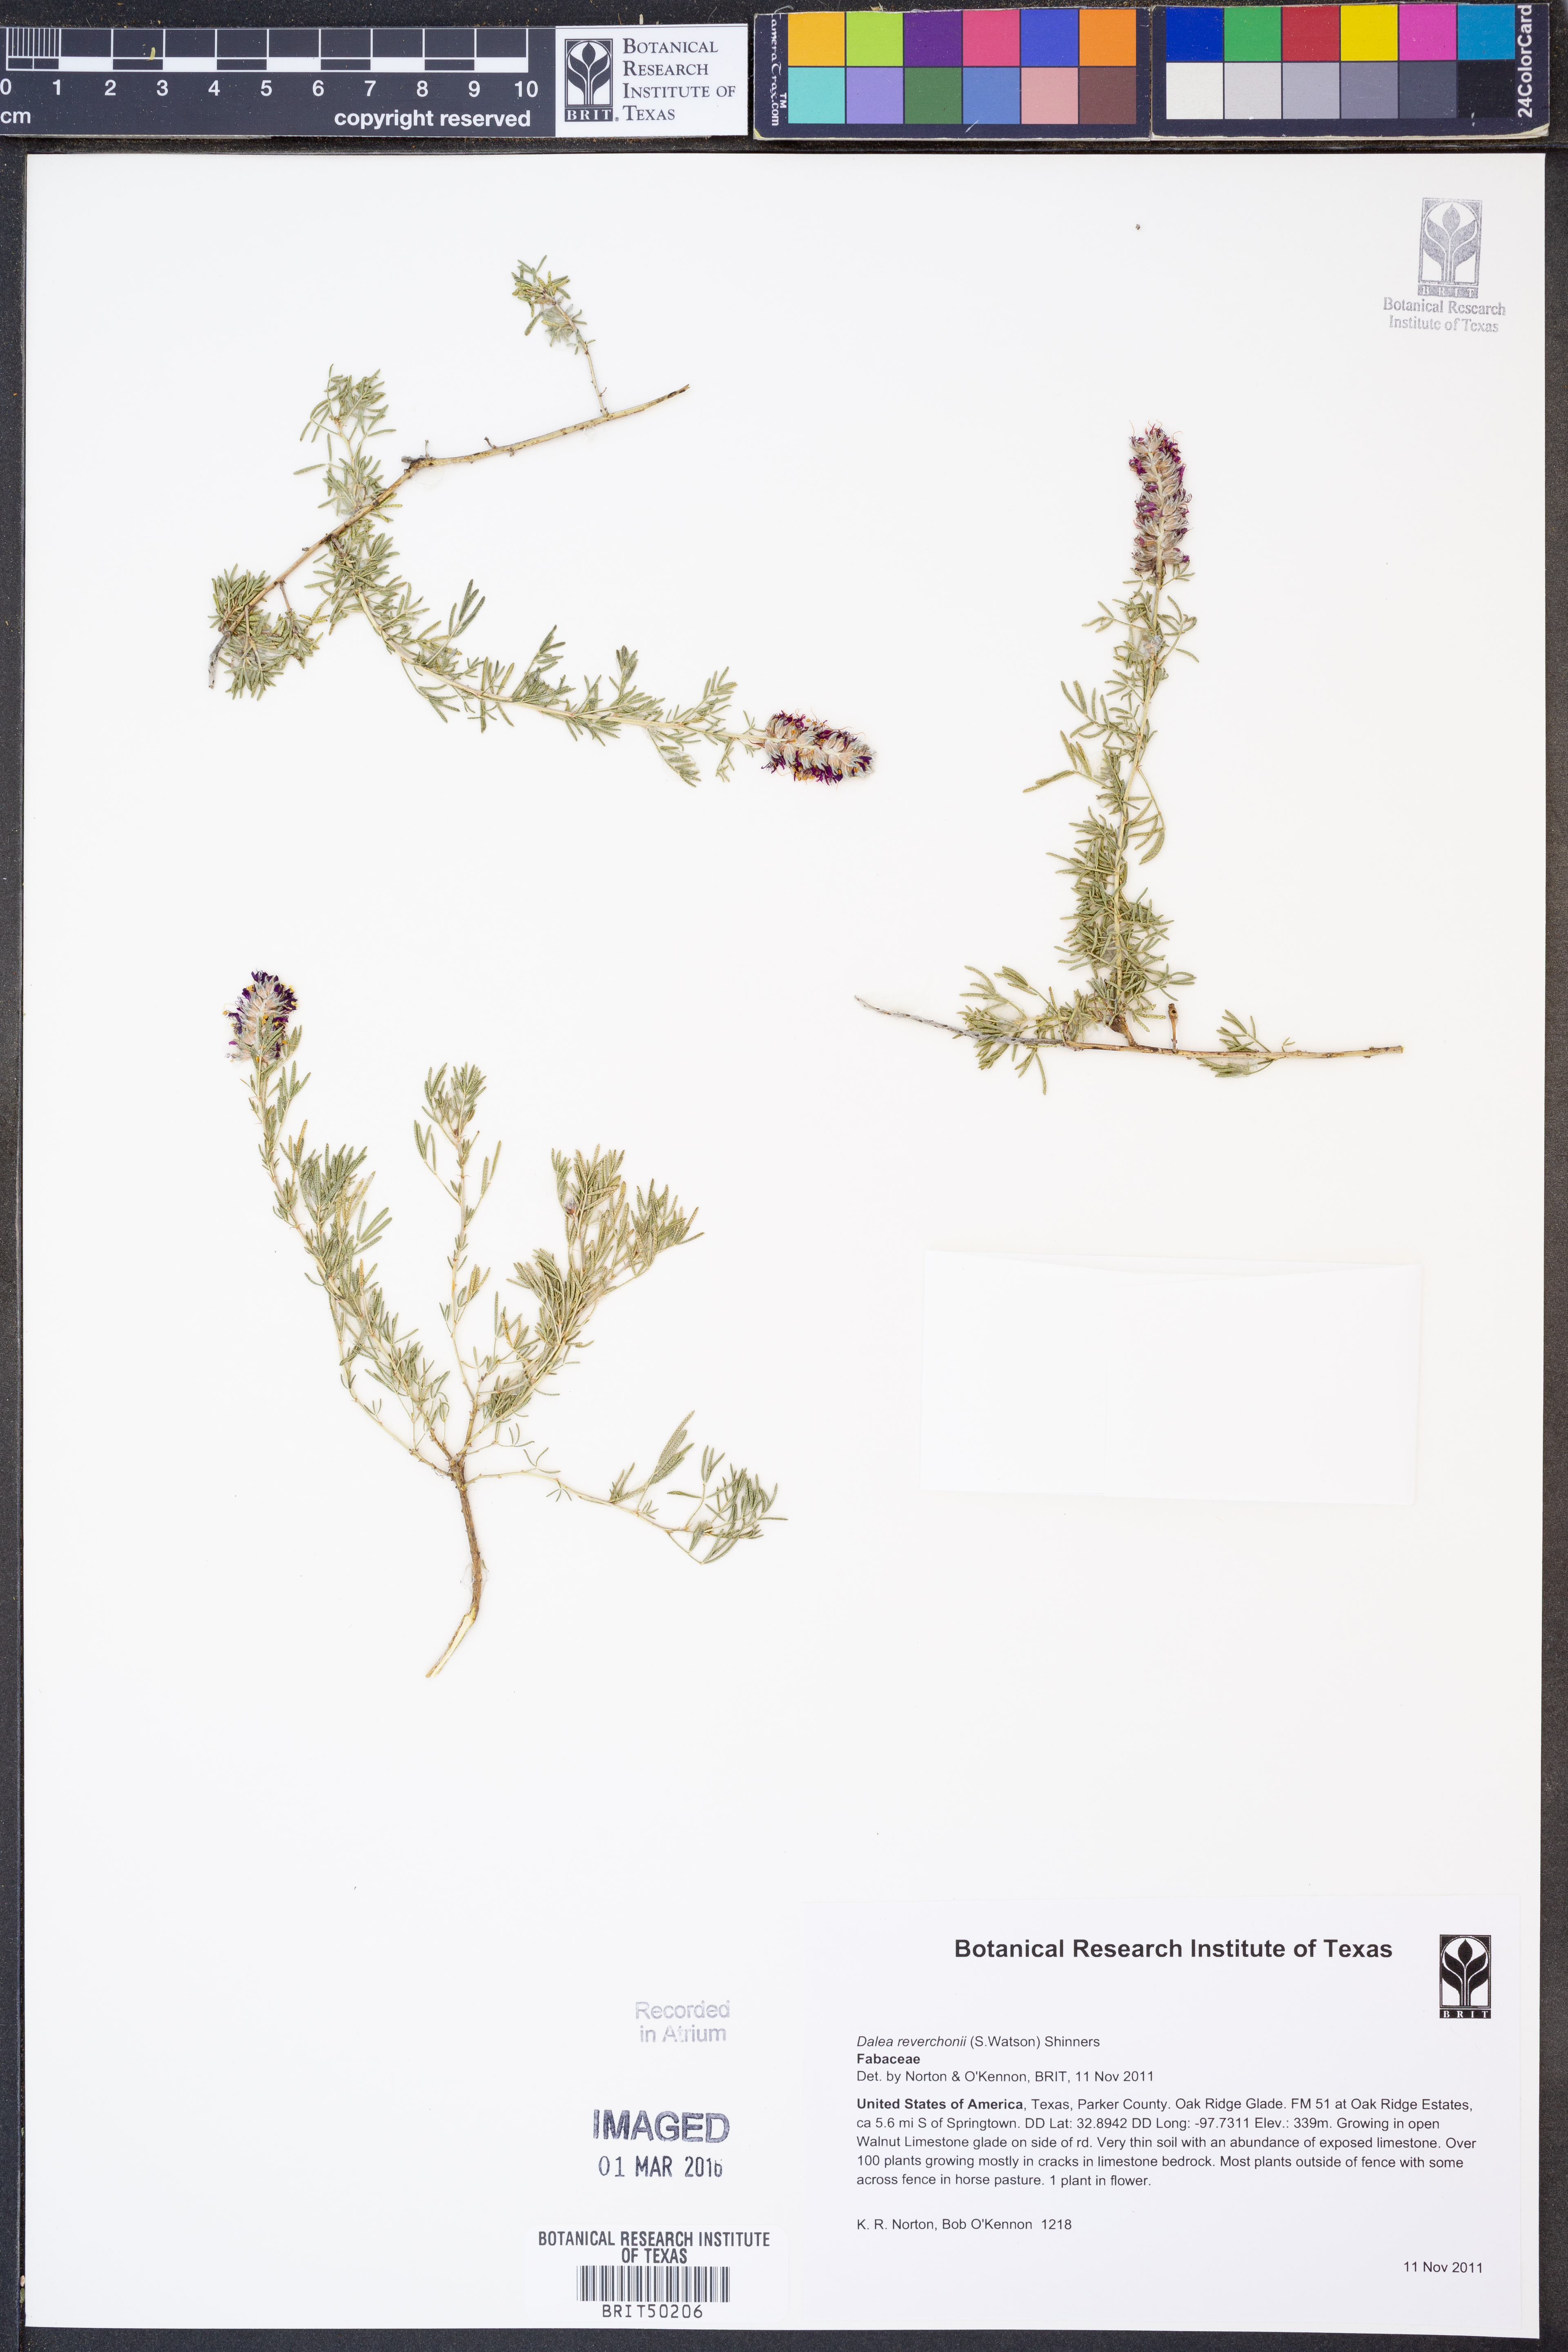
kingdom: Plantae
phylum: Tracheophyta
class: Magnoliopsida
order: Fabales
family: Fabaceae
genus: Dalea
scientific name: Dalea reverchonii
